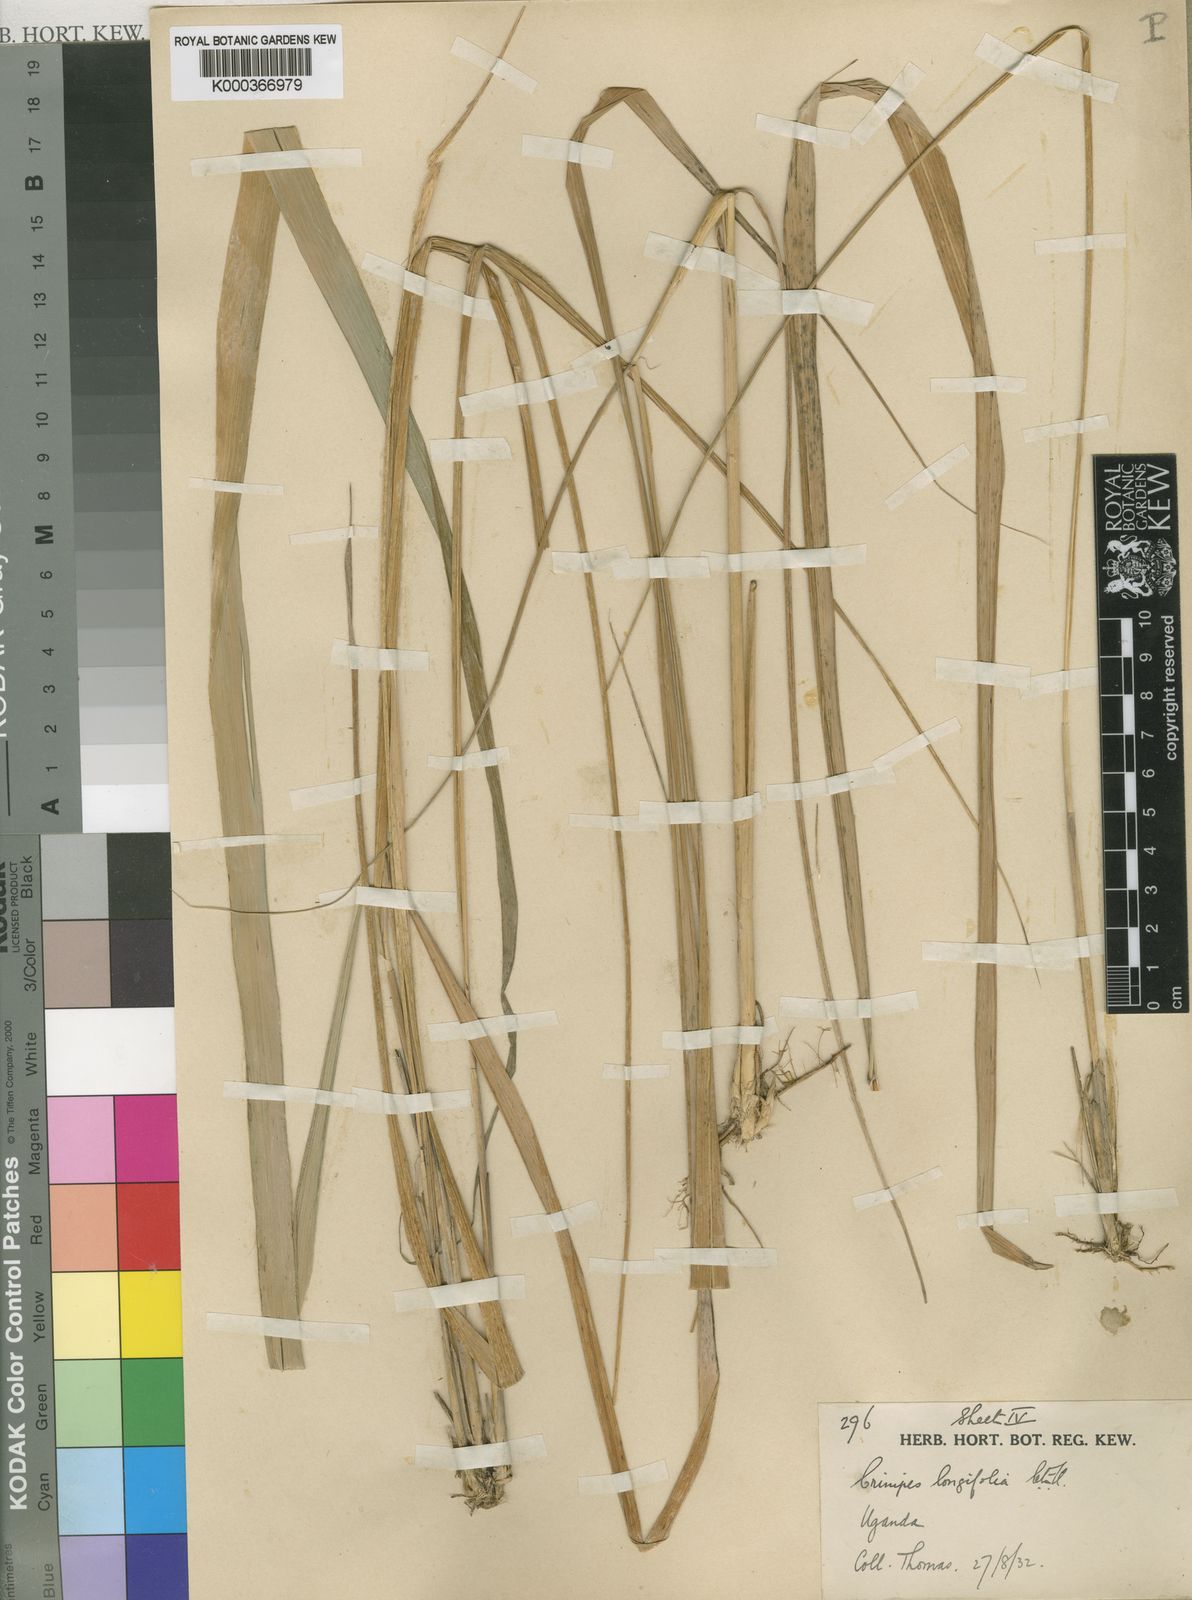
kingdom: Plantae
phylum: Tracheophyta
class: Liliopsida
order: Poales
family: Poaceae
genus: Crinipes
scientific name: Crinipes longifolius
